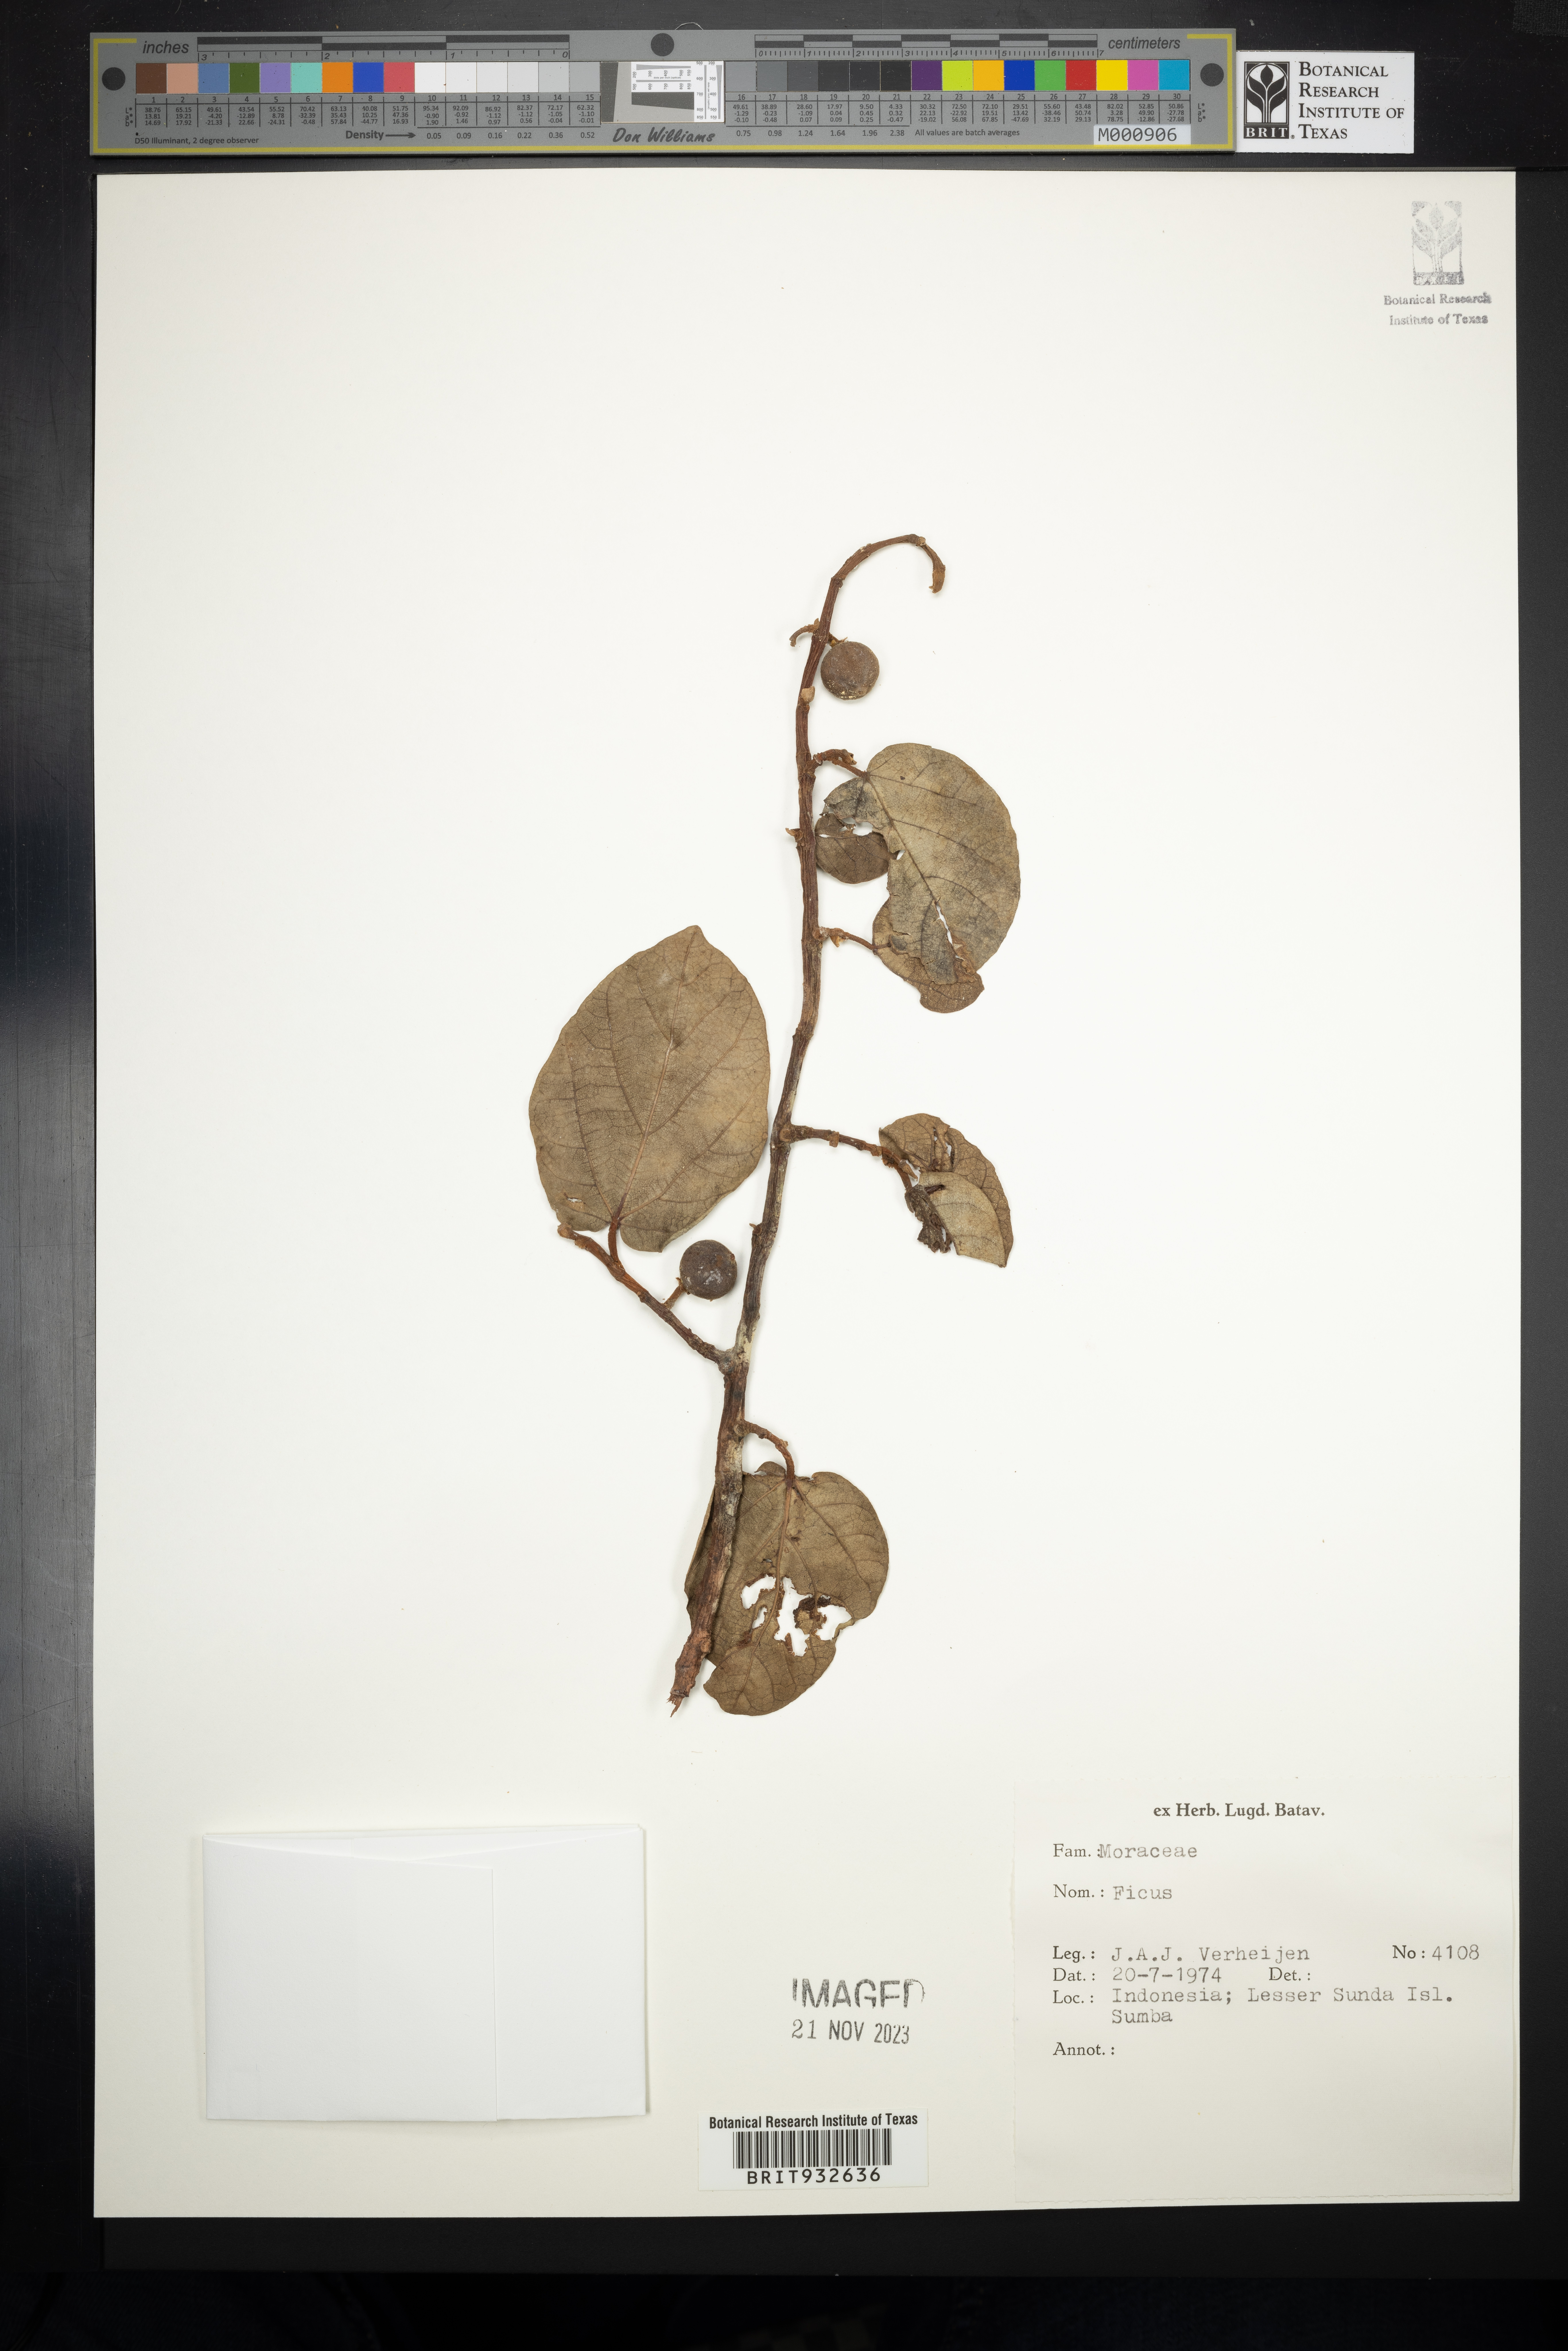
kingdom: Plantae
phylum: Tracheophyta
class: Magnoliopsida
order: Rosales
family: Moraceae
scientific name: Moraceae
